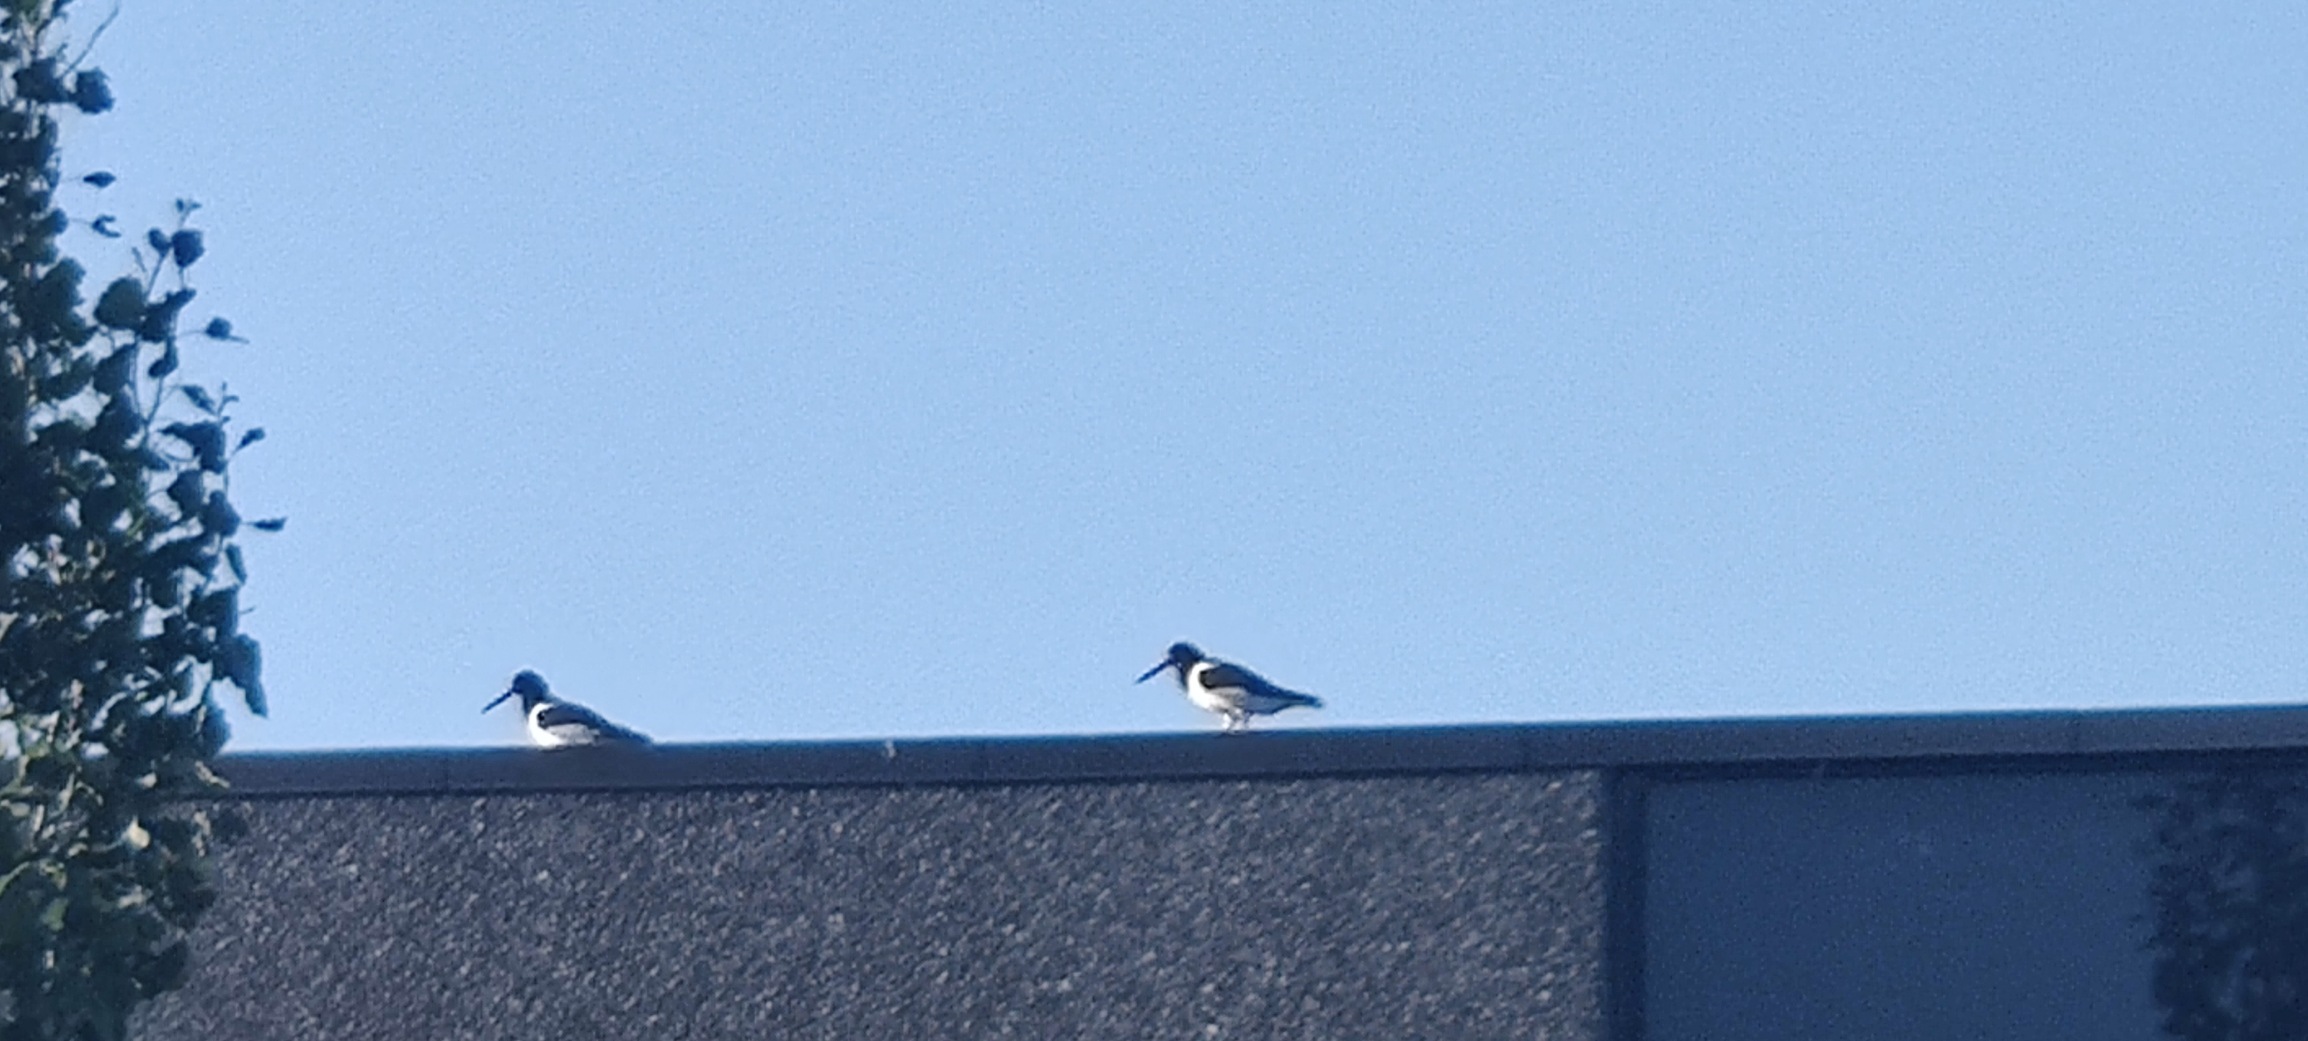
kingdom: Animalia
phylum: Chordata
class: Aves
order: Charadriiformes
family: Haematopodidae
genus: Haematopus
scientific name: Haematopus ostralegus
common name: Strandskade
